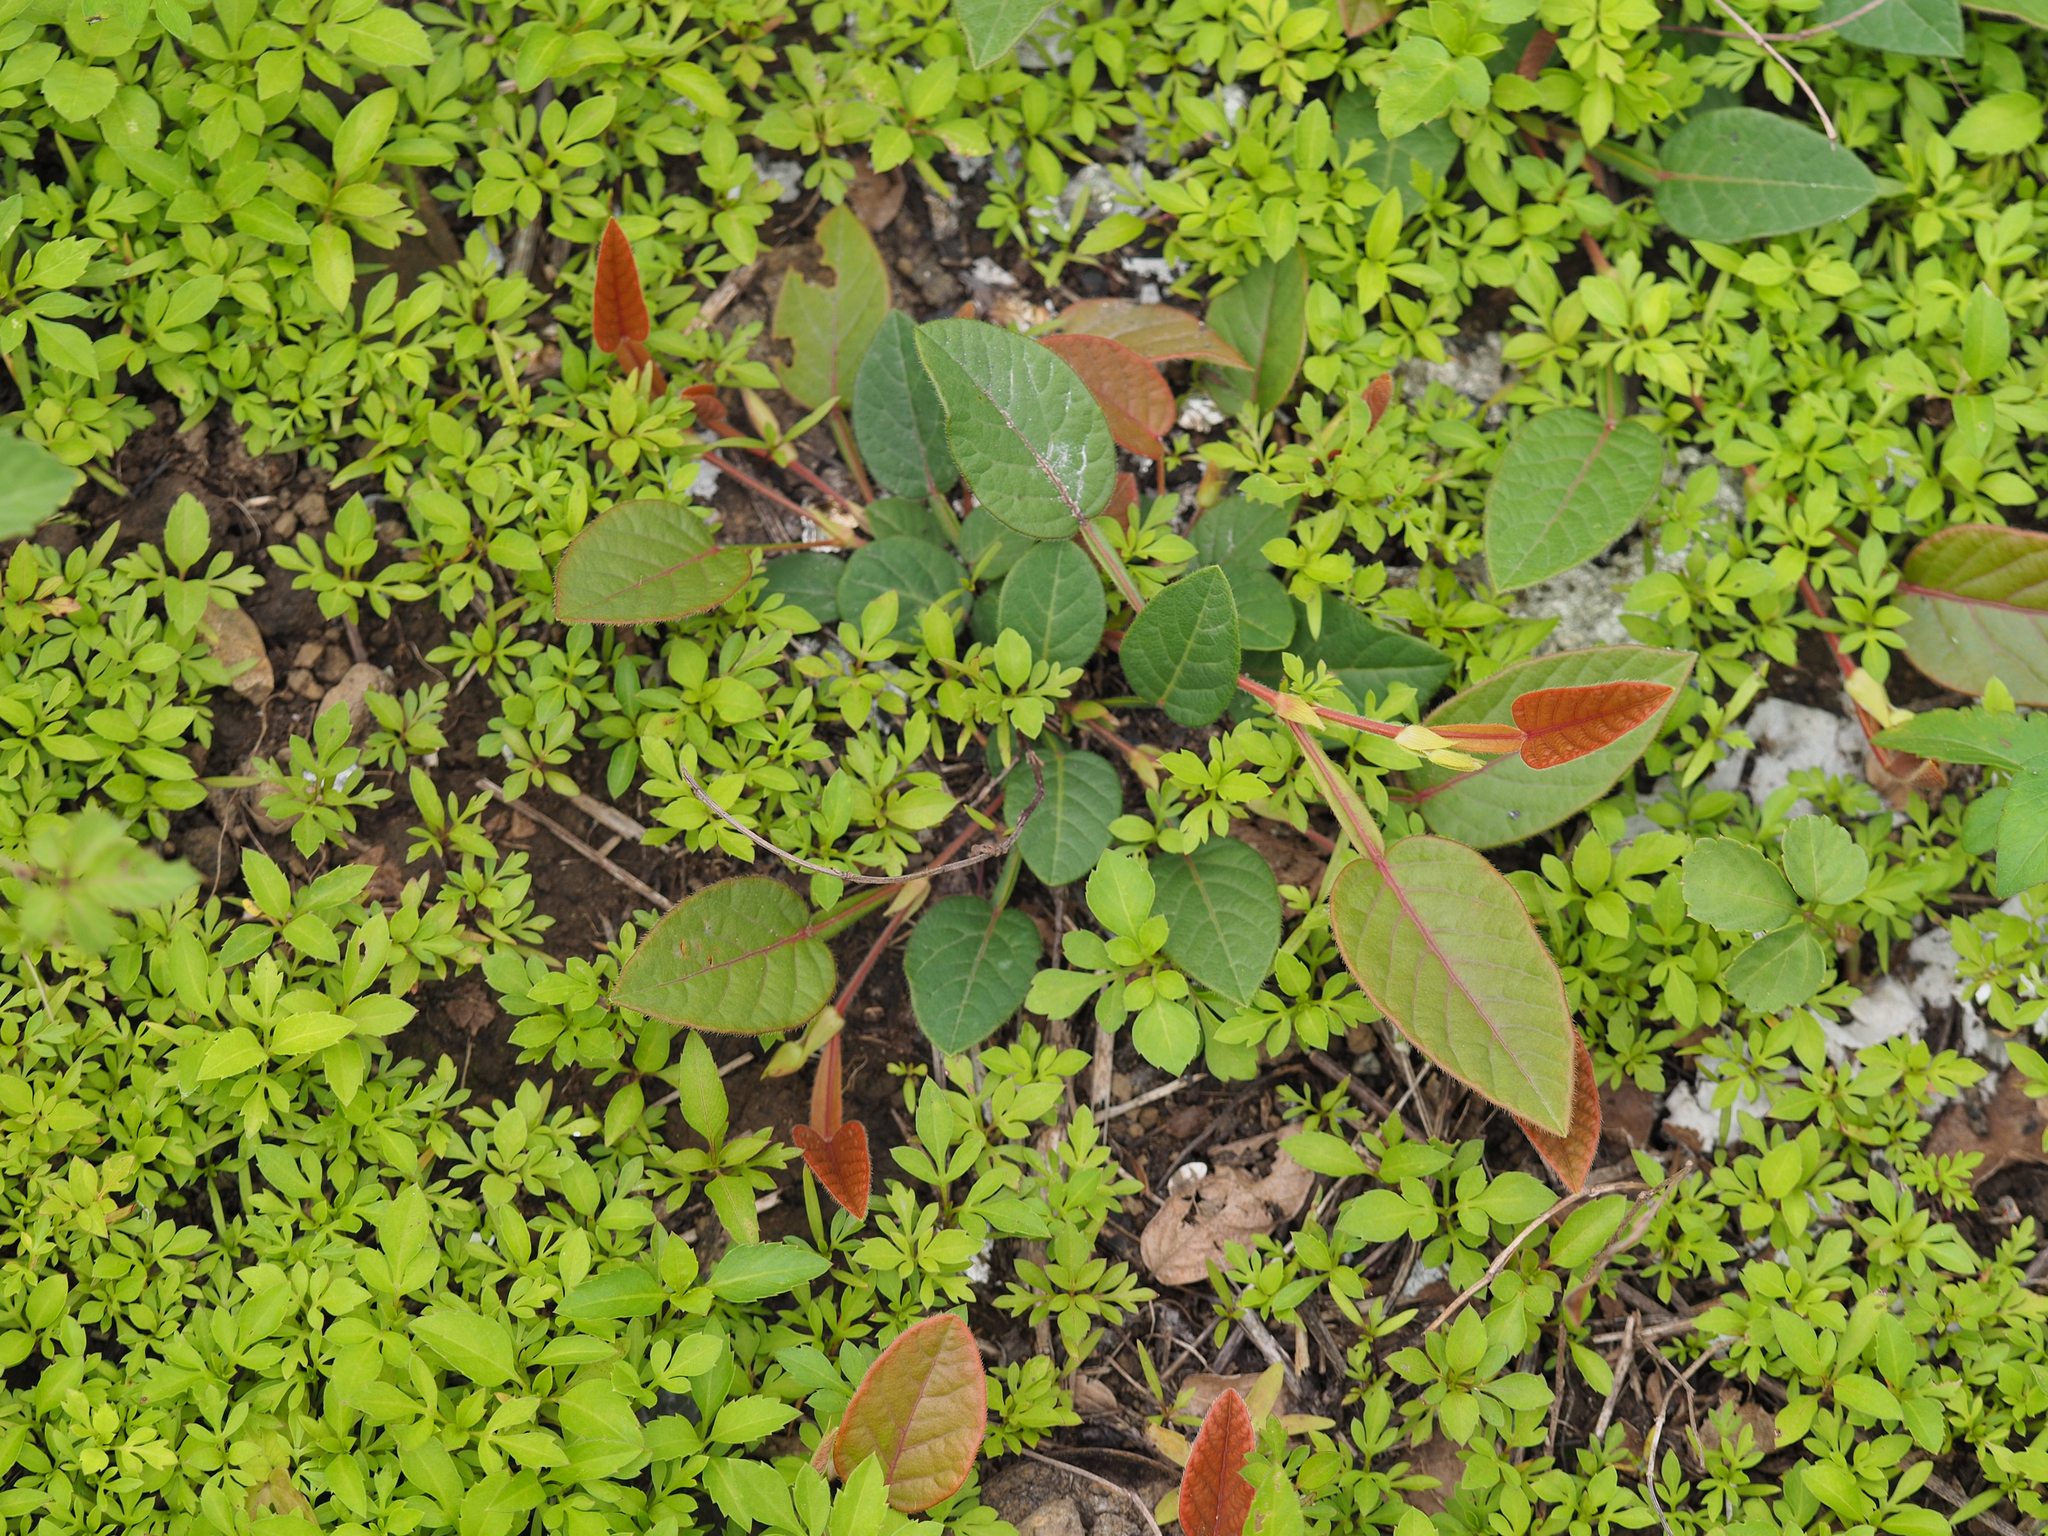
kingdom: Plantae
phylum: Tracheophyta
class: Magnoliopsida
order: Fabales
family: Fabaceae
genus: Tadehagi
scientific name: Tadehagi pseudotriquetrum
